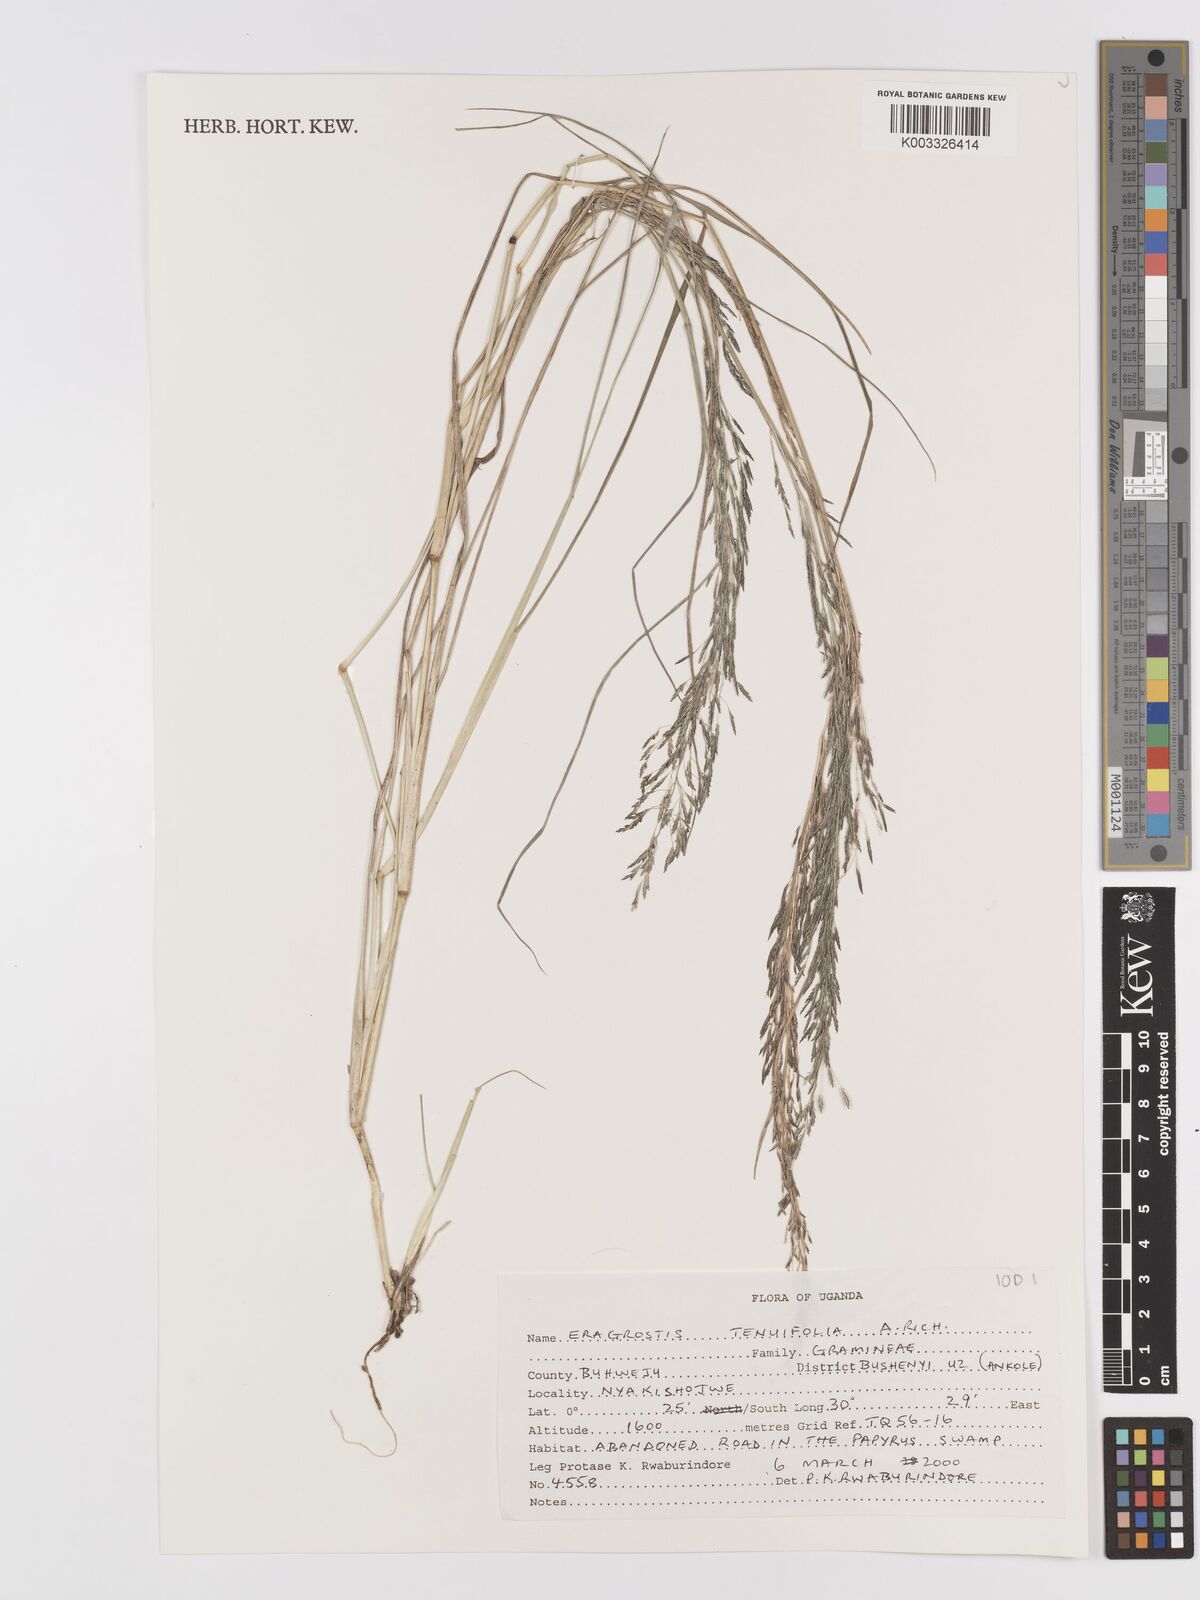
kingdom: Plantae
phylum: Tracheophyta
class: Liliopsida
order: Poales
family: Poaceae
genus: Eragrostis
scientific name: Eragrostis tenuifolia
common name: Elastic grass
